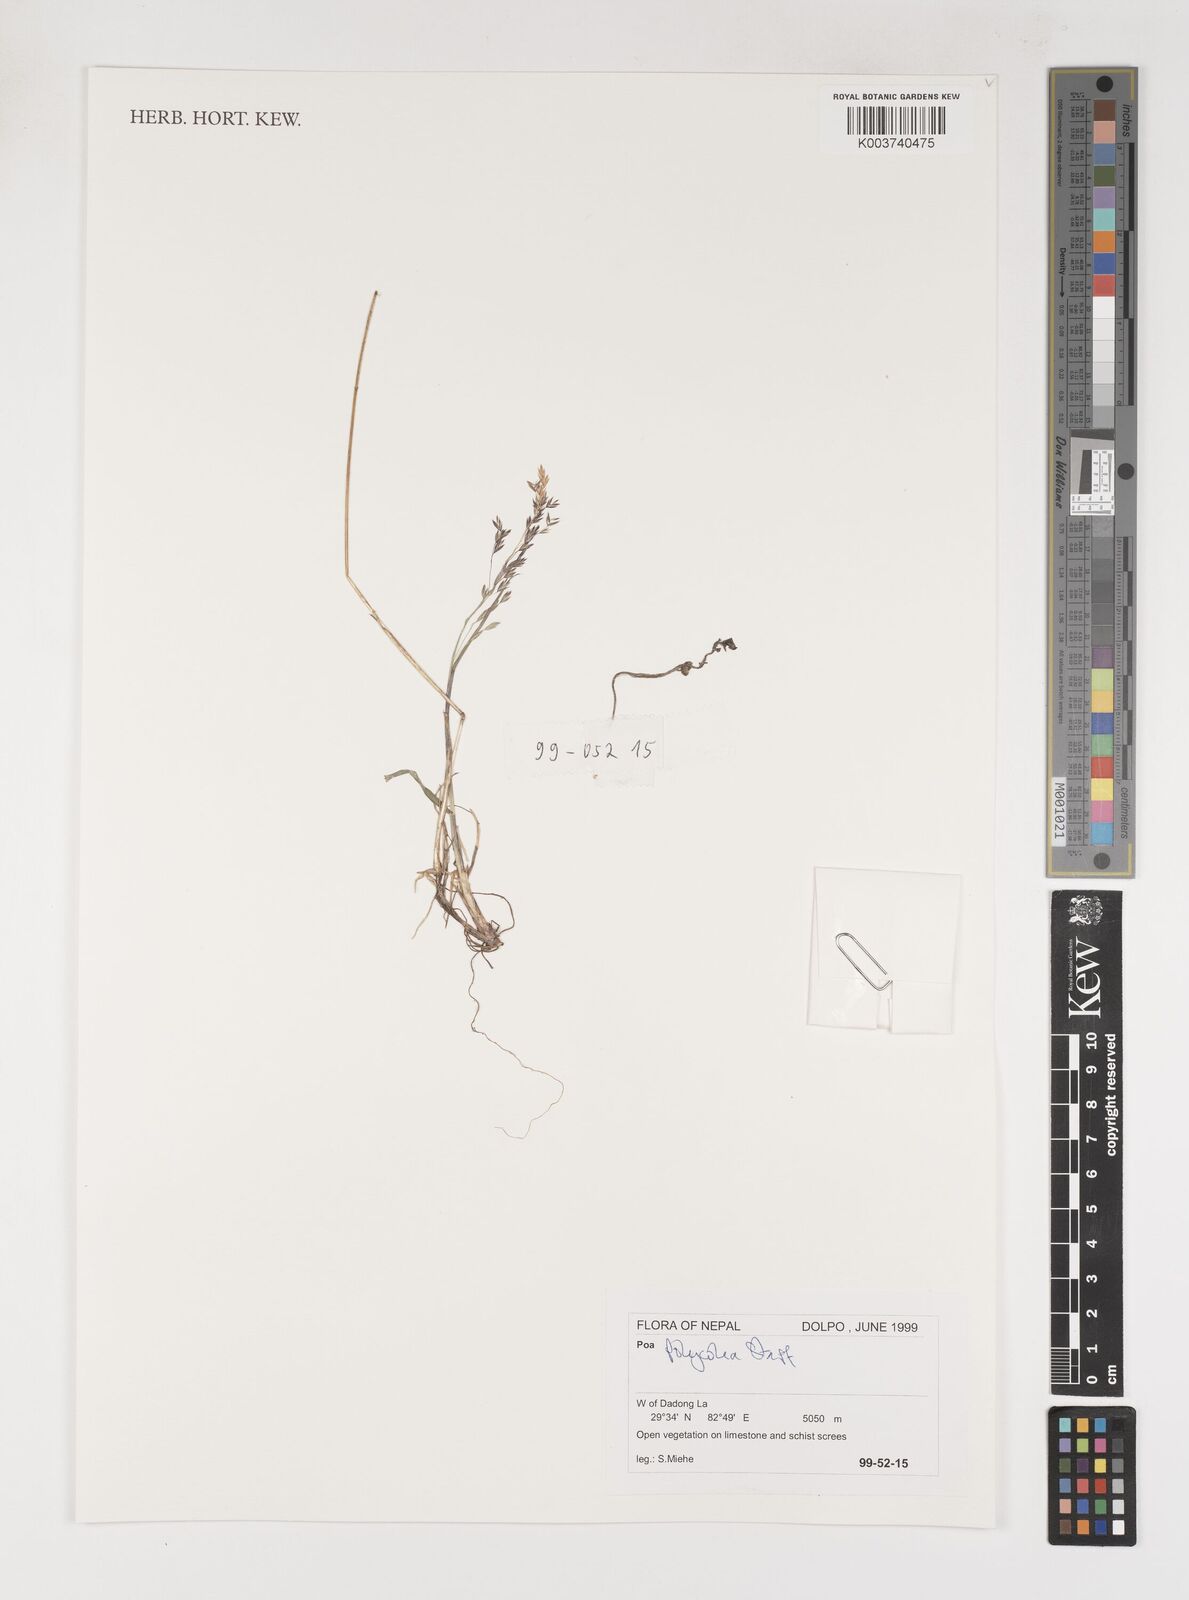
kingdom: Plantae
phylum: Tracheophyta
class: Liliopsida
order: Poales
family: Poaceae
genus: Poa
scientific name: Poa polycolea
